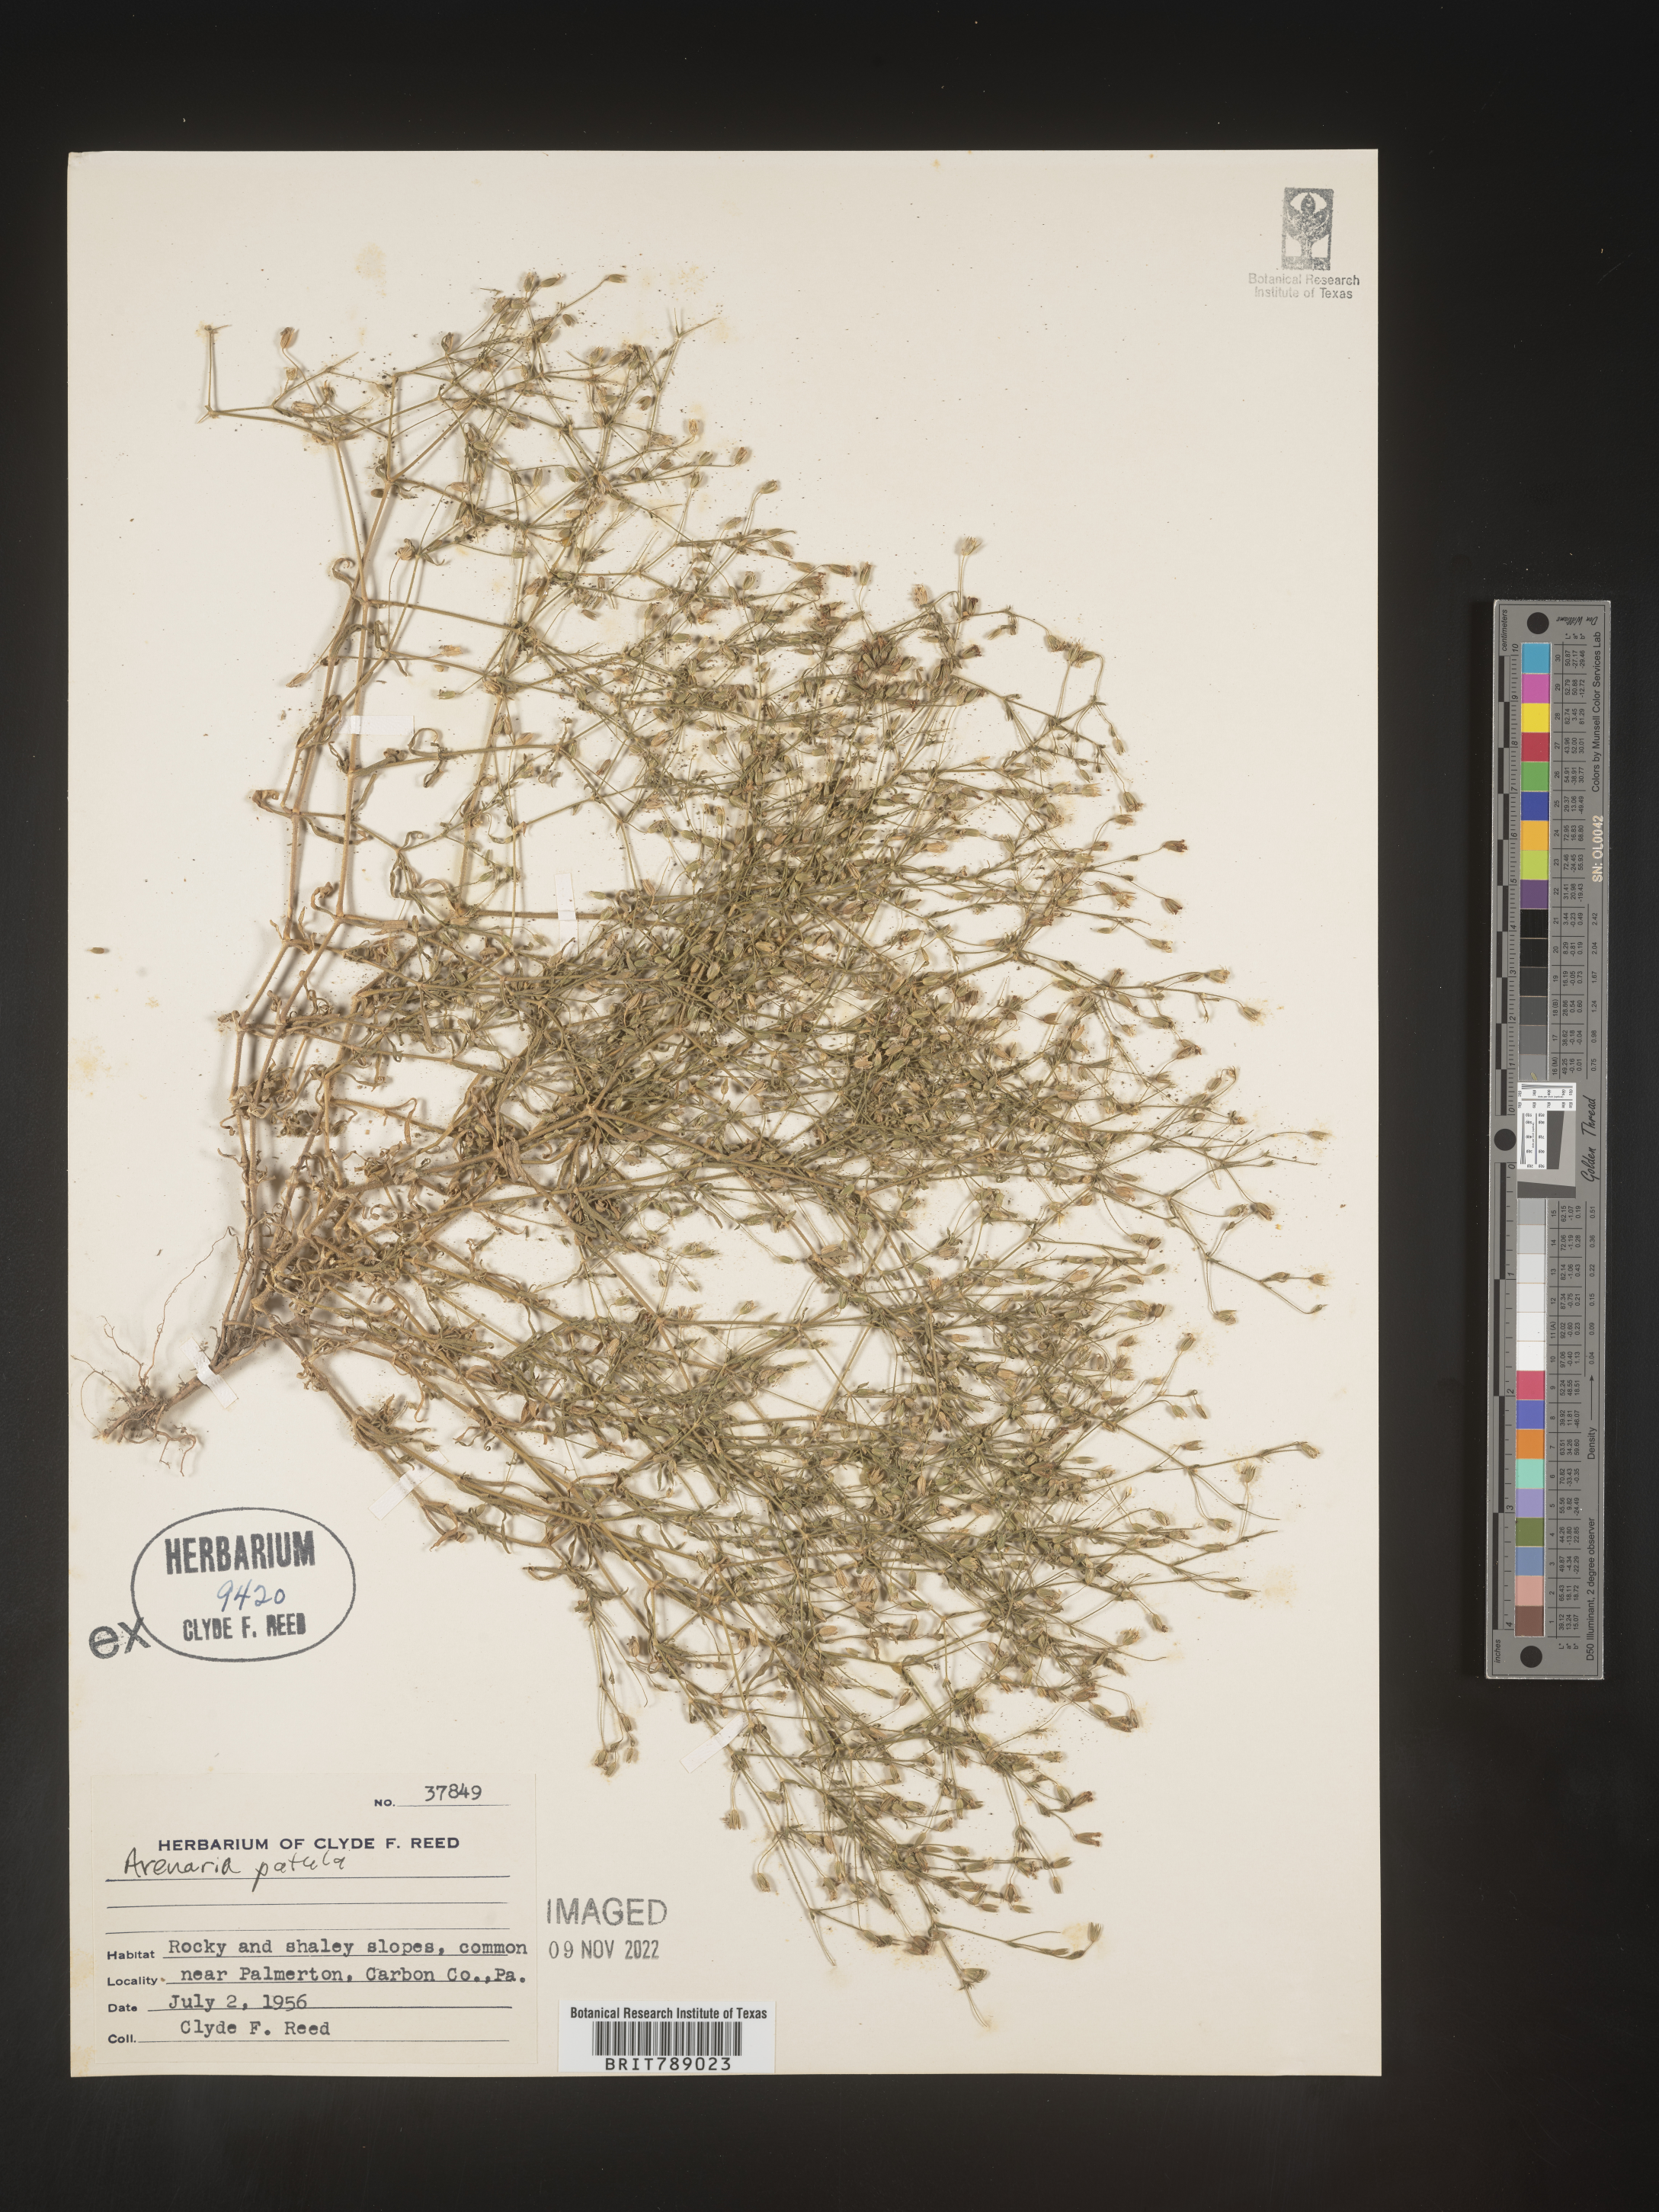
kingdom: Plantae
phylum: Tracheophyta
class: Magnoliopsida
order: Caryophyllales
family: Caryophyllaceae
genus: Mononeuria
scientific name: Mononeuria patula
